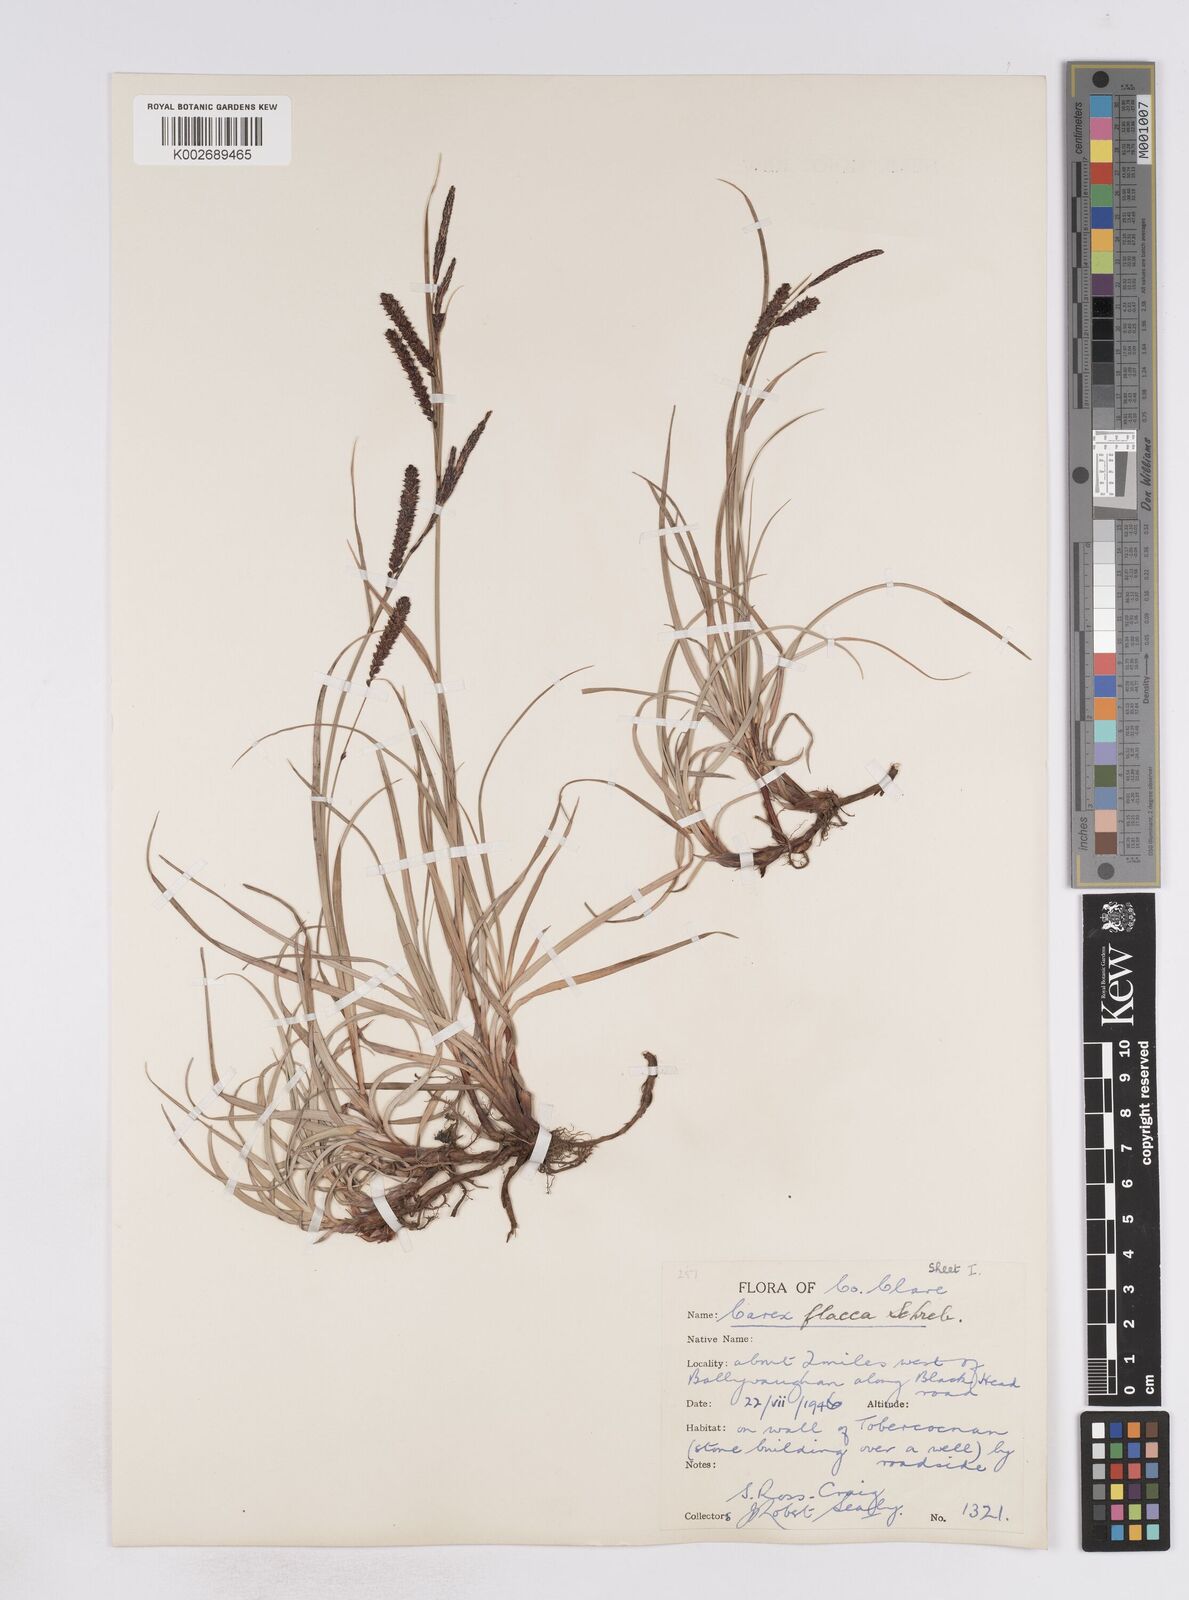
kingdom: Plantae
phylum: Tracheophyta
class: Liliopsida
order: Poales
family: Cyperaceae
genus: Carex
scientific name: Carex flacca
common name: Glaucous sedge
